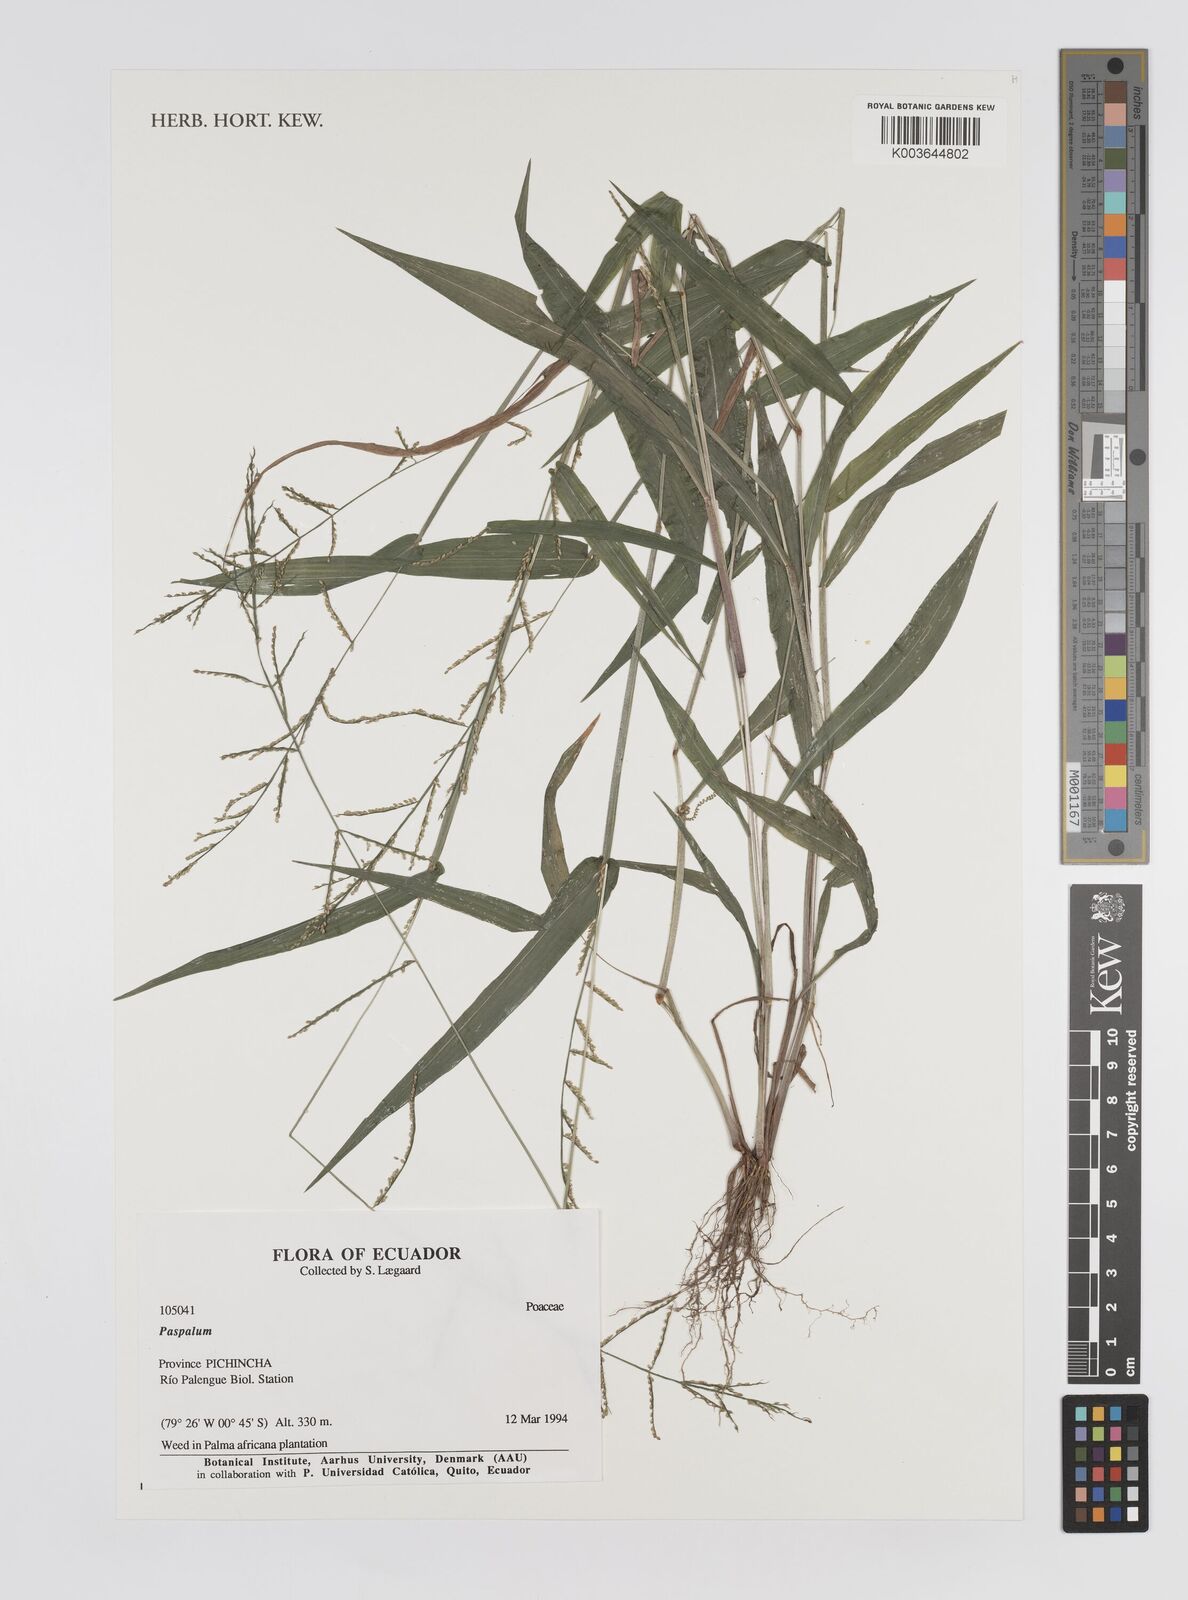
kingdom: Plantae
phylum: Tracheophyta
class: Liliopsida
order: Poales
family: Poaceae
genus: Paspalum
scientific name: Paspalum
